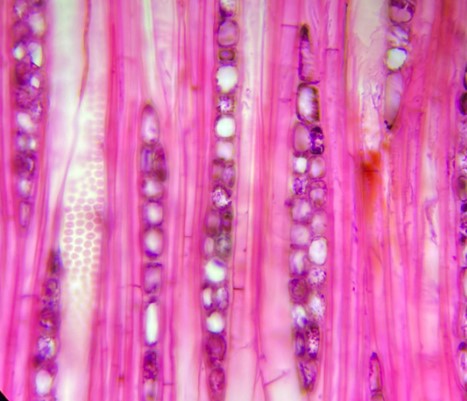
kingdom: Plantae
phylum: Tracheophyta
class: Magnoliopsida
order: Fagales
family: Nothofagaceae
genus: Nothofagus
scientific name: Nothofagus alessandrii
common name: Ruil
